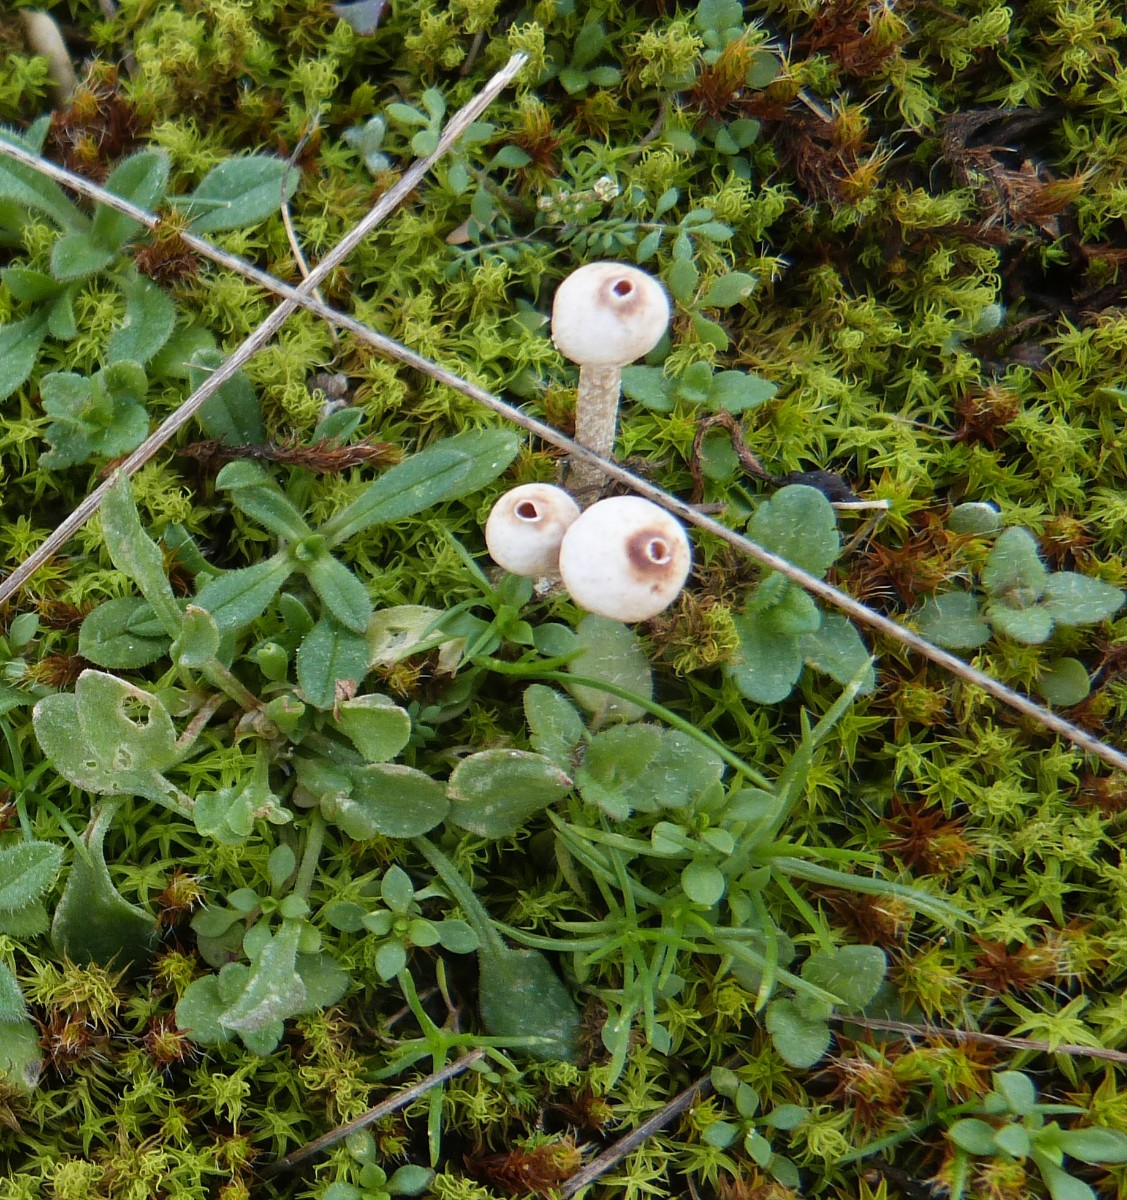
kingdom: Fungi
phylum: Basidiomycota
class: Agaricomycetes
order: Agaricales
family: Agaricaceae
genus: Tulostoma
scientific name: Tulostoma brumale
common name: vinter-stilkbovist
